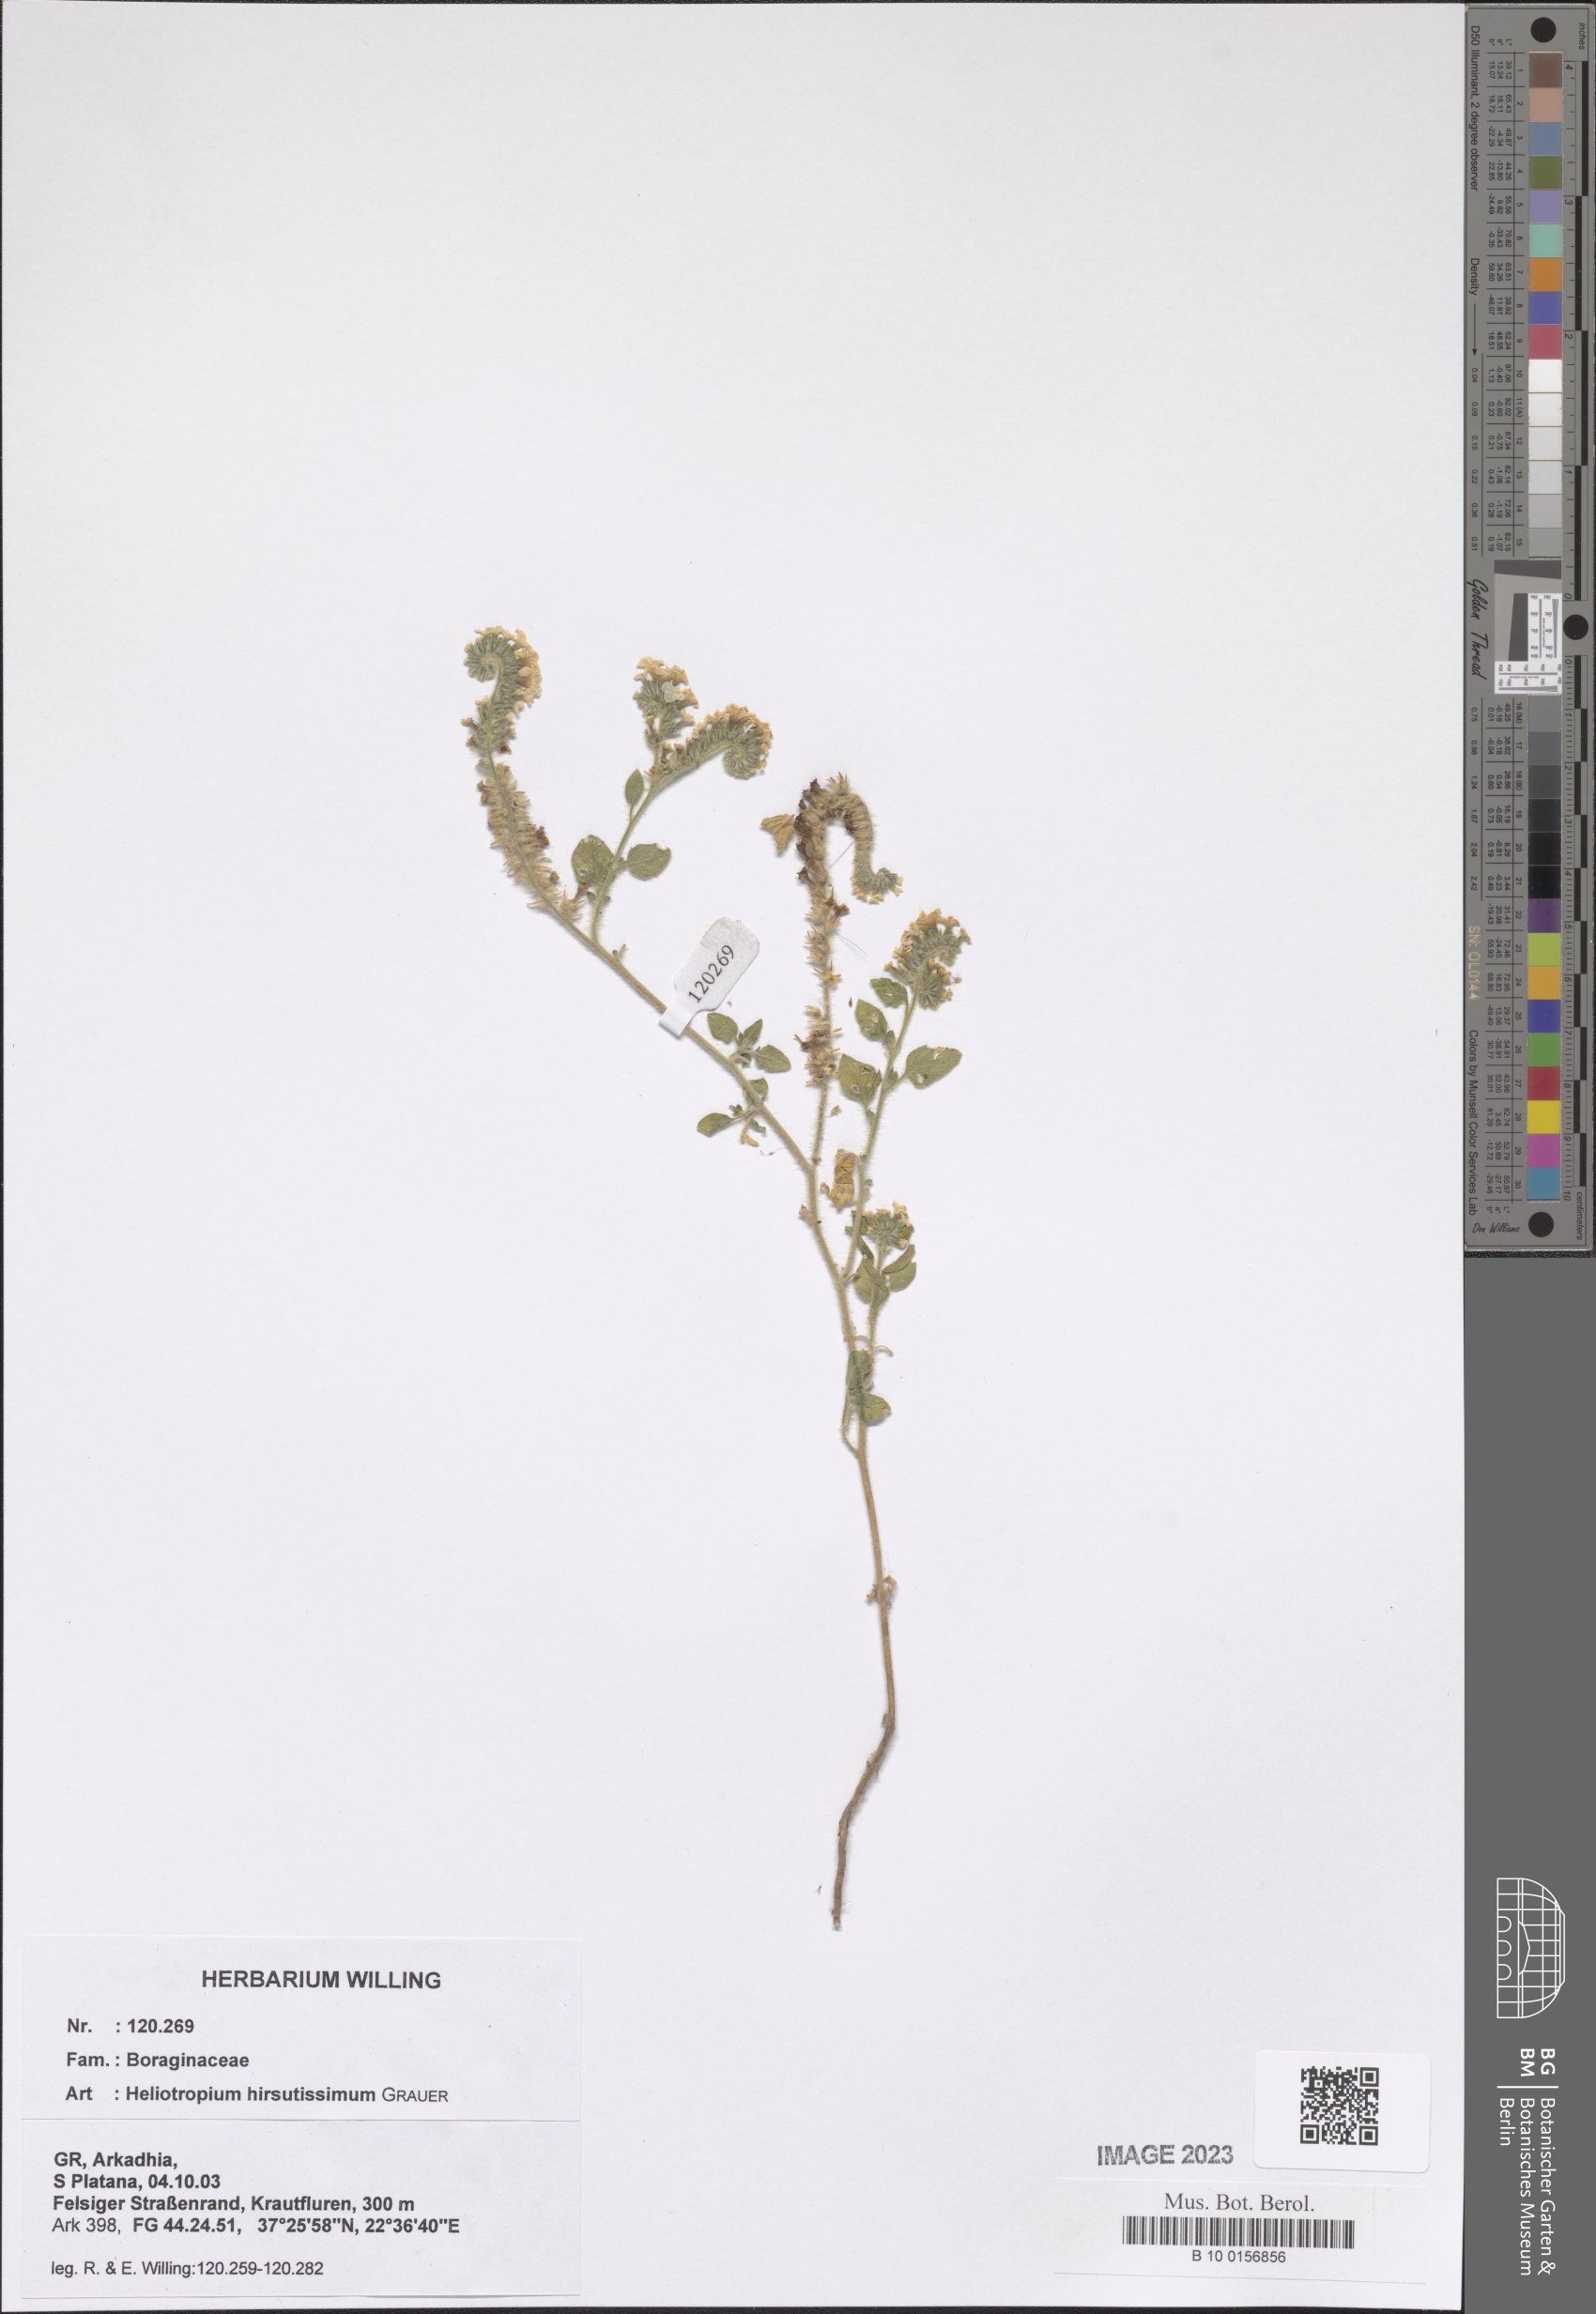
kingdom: Plantae
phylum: Tracheophyta
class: Magnoliopsida
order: Boraginales
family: Heliotropiaceae
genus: Heliotropium
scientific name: Heliotropium hirsutissimum
